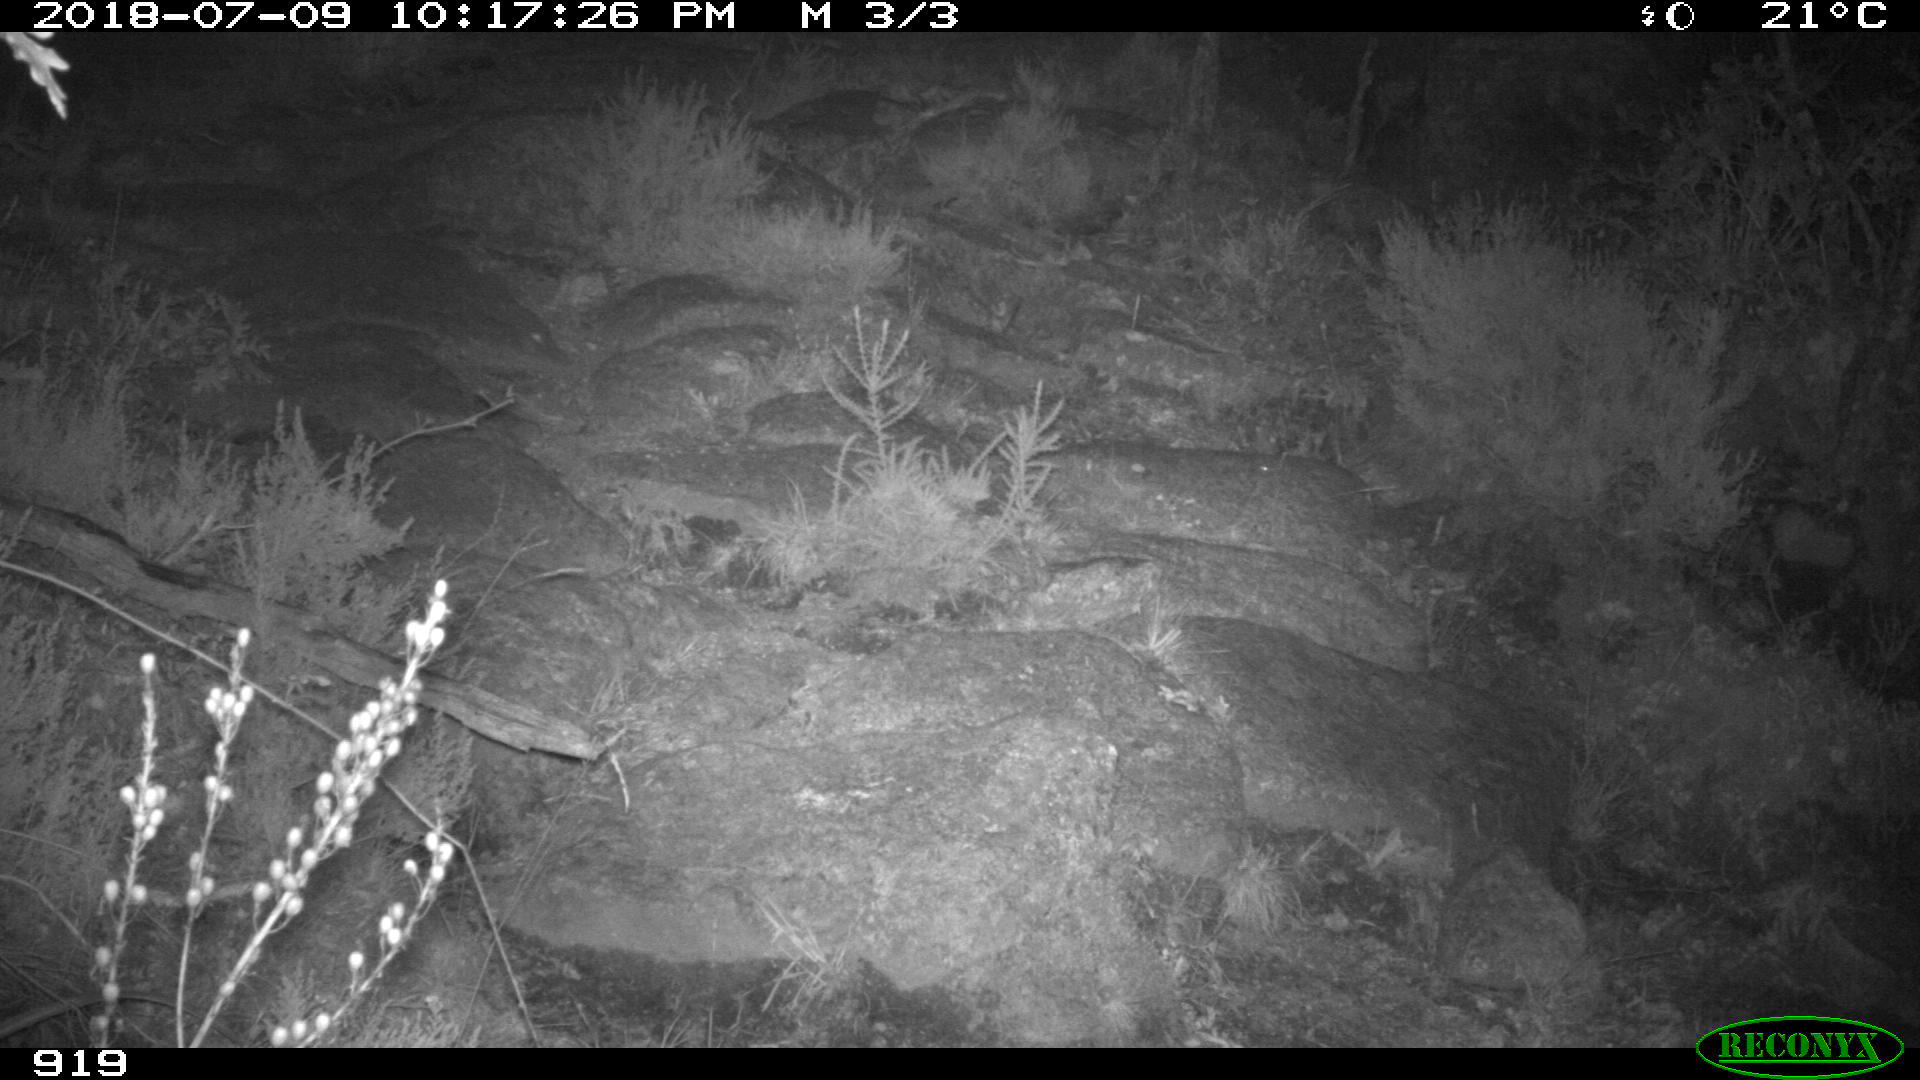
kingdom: Animalia
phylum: Chordata
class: Mammalia
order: Artiodactyla
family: Bovidae
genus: Bos
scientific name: Bos taurus
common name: Domesticated cattle
